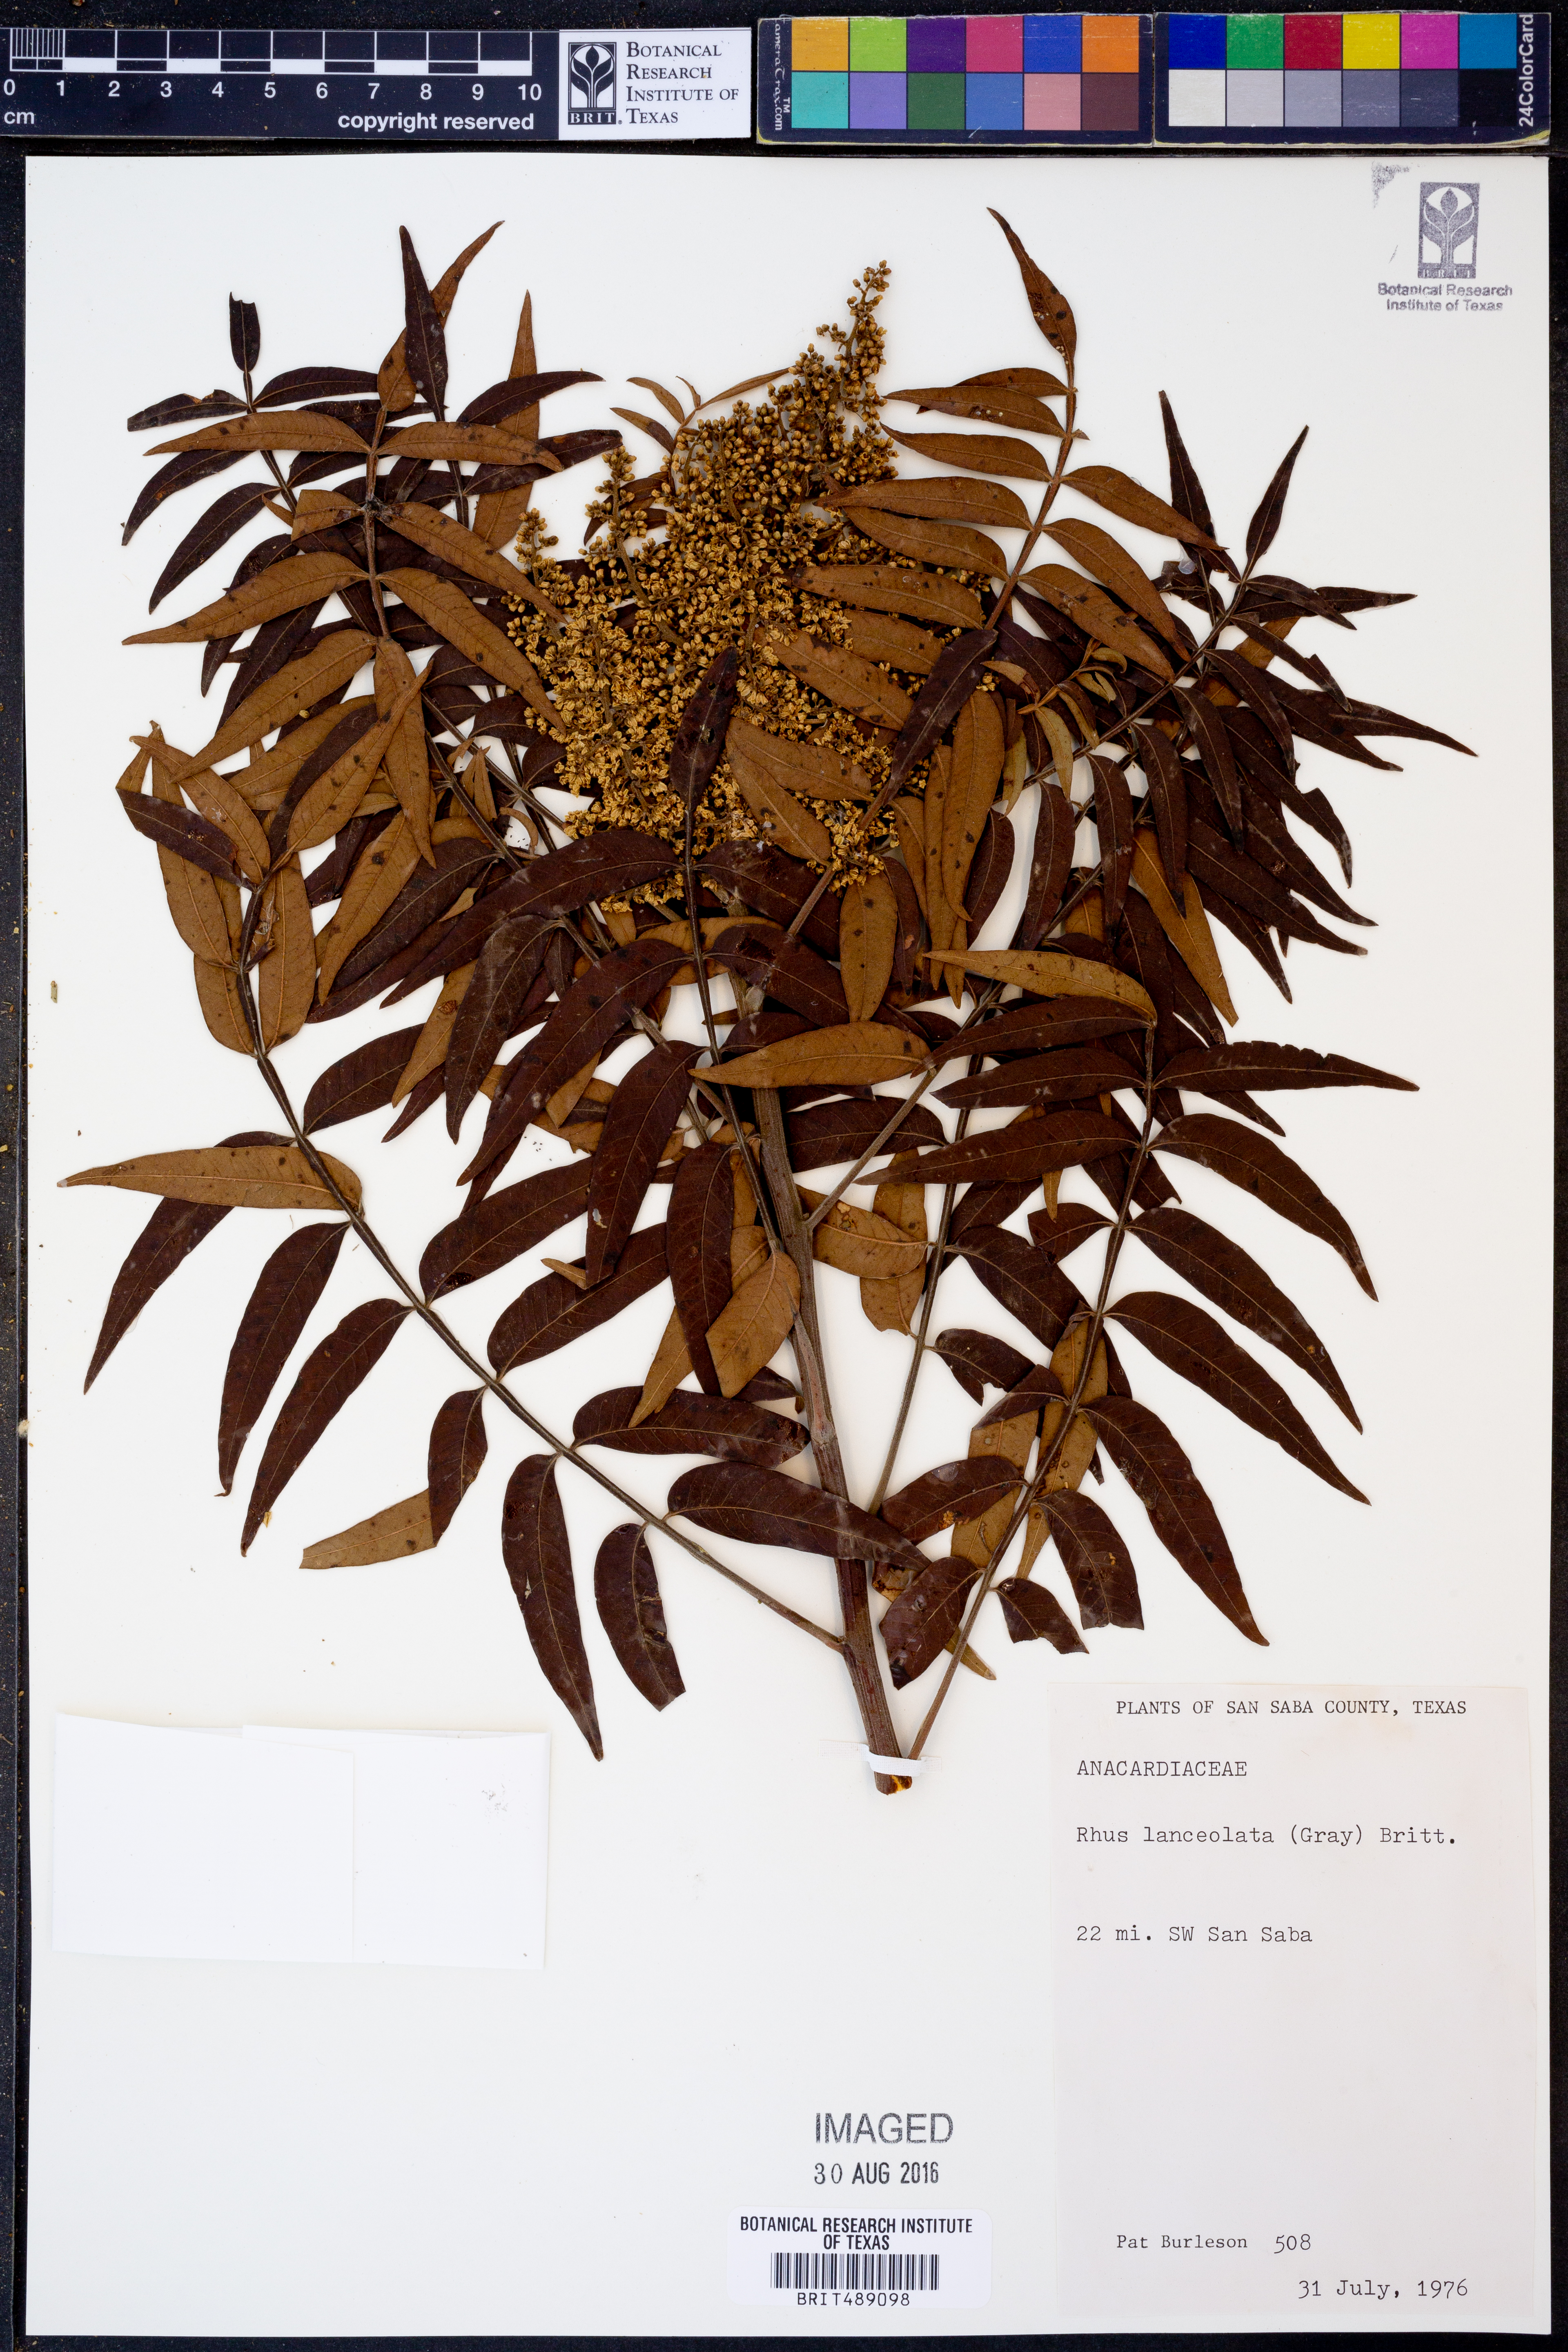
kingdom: Plantae
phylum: Tracheophyta
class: Magnoliopsida
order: Sapindales
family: Anacardiaceae
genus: Rhus
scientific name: Rhus lanceolata
